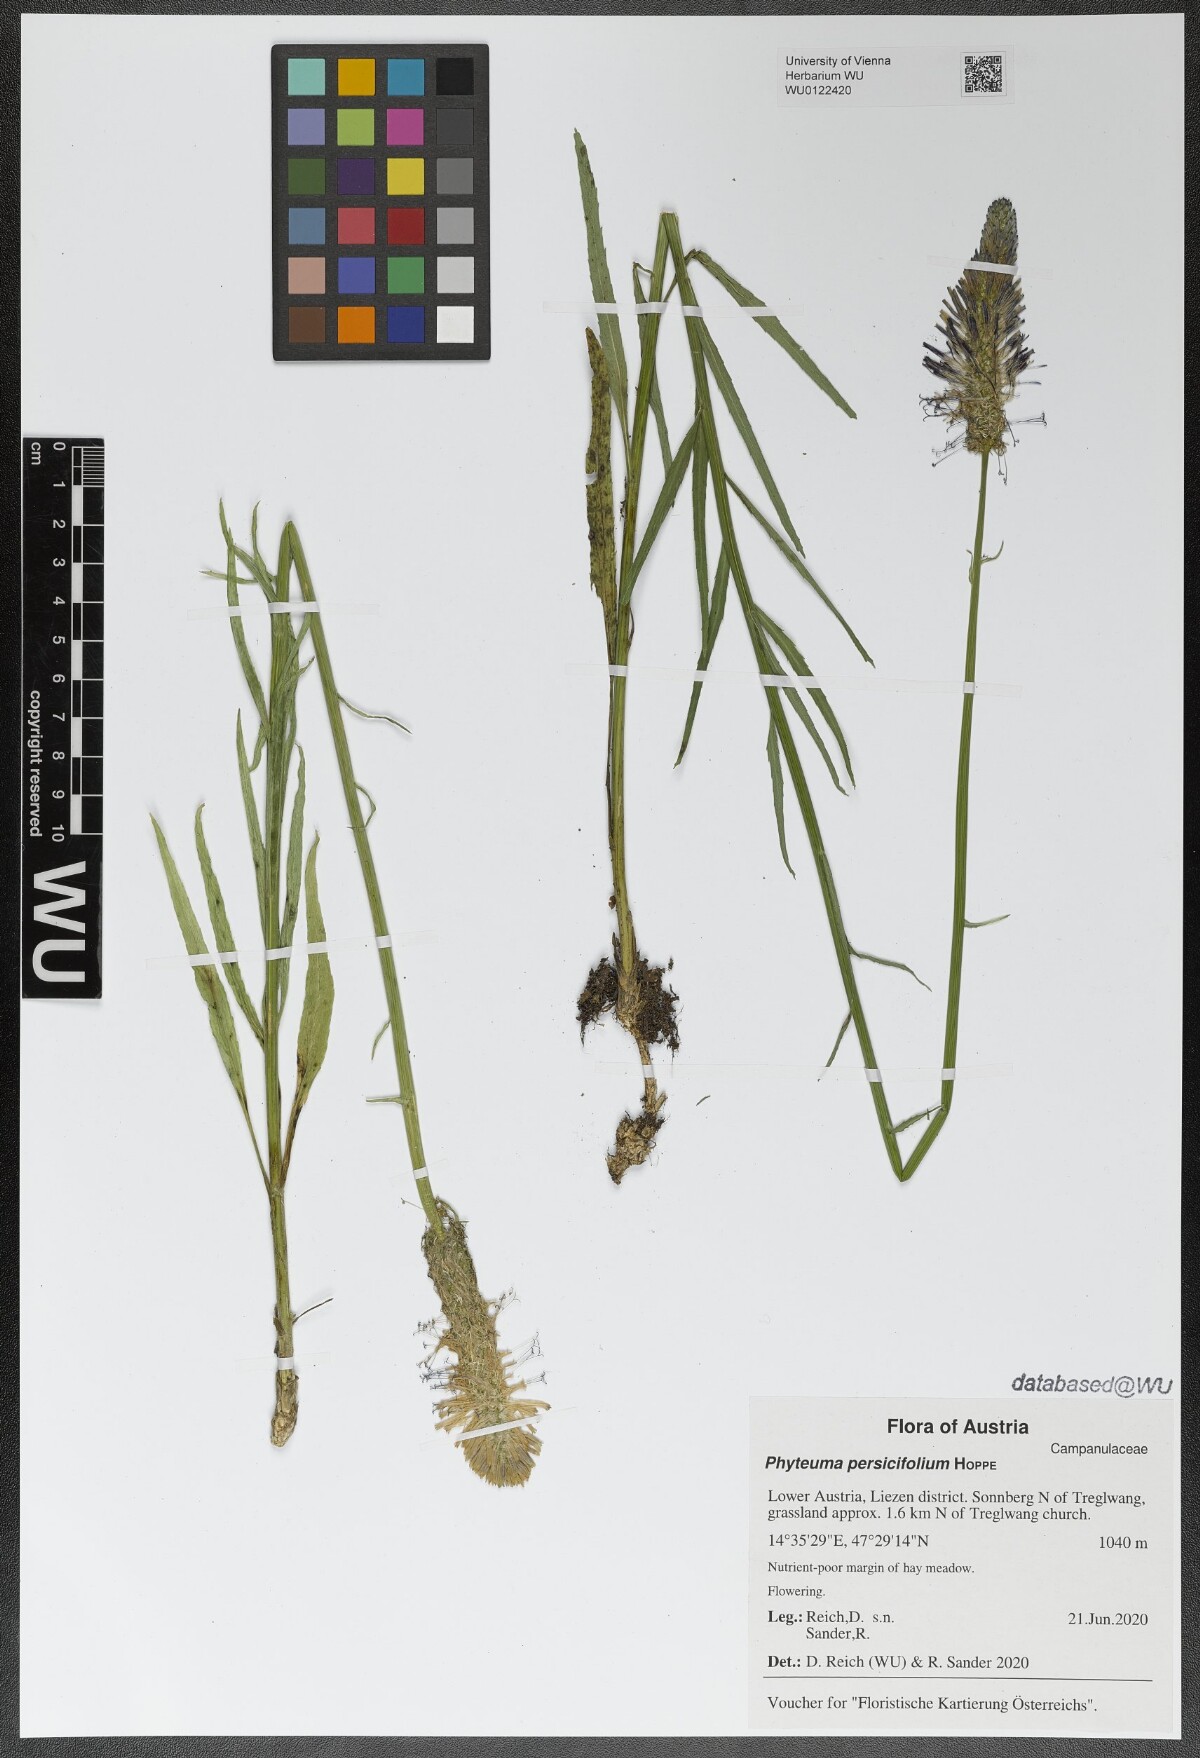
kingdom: Plantae
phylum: Tracheophyta
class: Magnoliopsida
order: Asterales
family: Campanulaceae
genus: Phyteuma
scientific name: Phyteuma persicifolium
